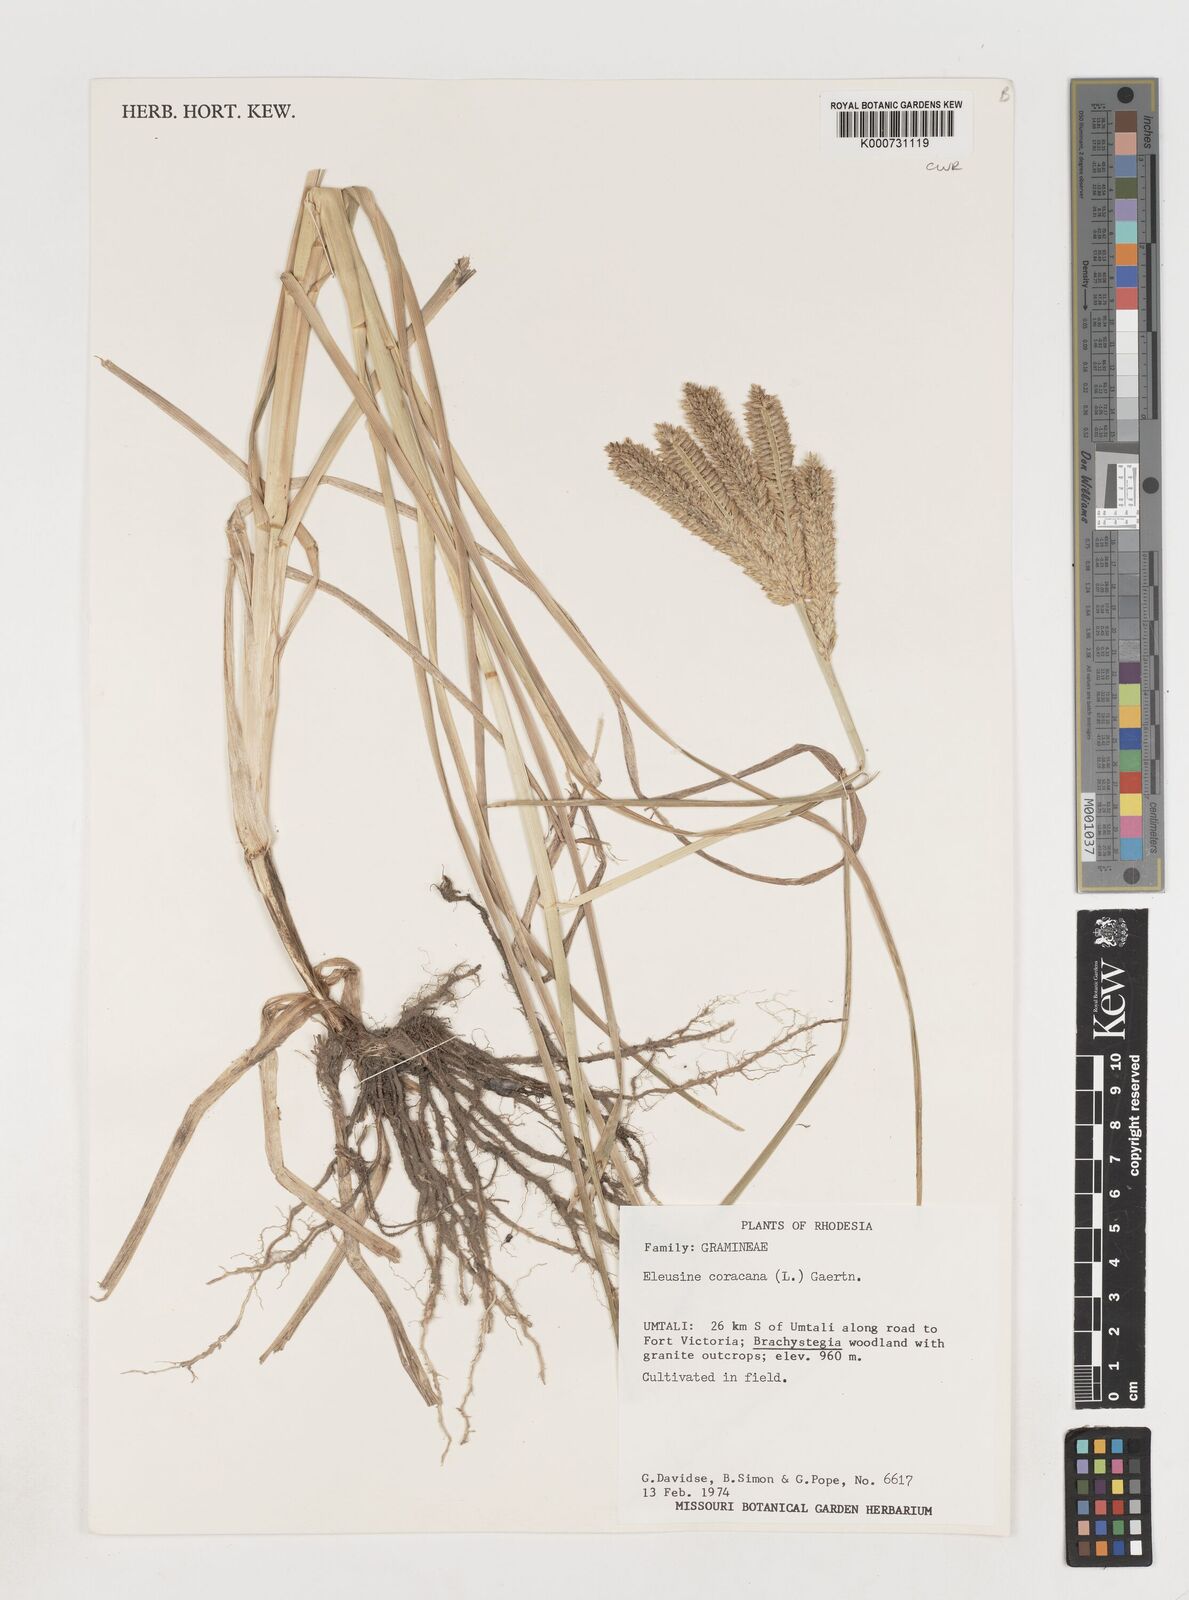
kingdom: Plantae
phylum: Tracheophyta
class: Liliopsida
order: Poales
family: Poaceae
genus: Eleusine
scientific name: Eleusine coracana
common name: Finger millet
